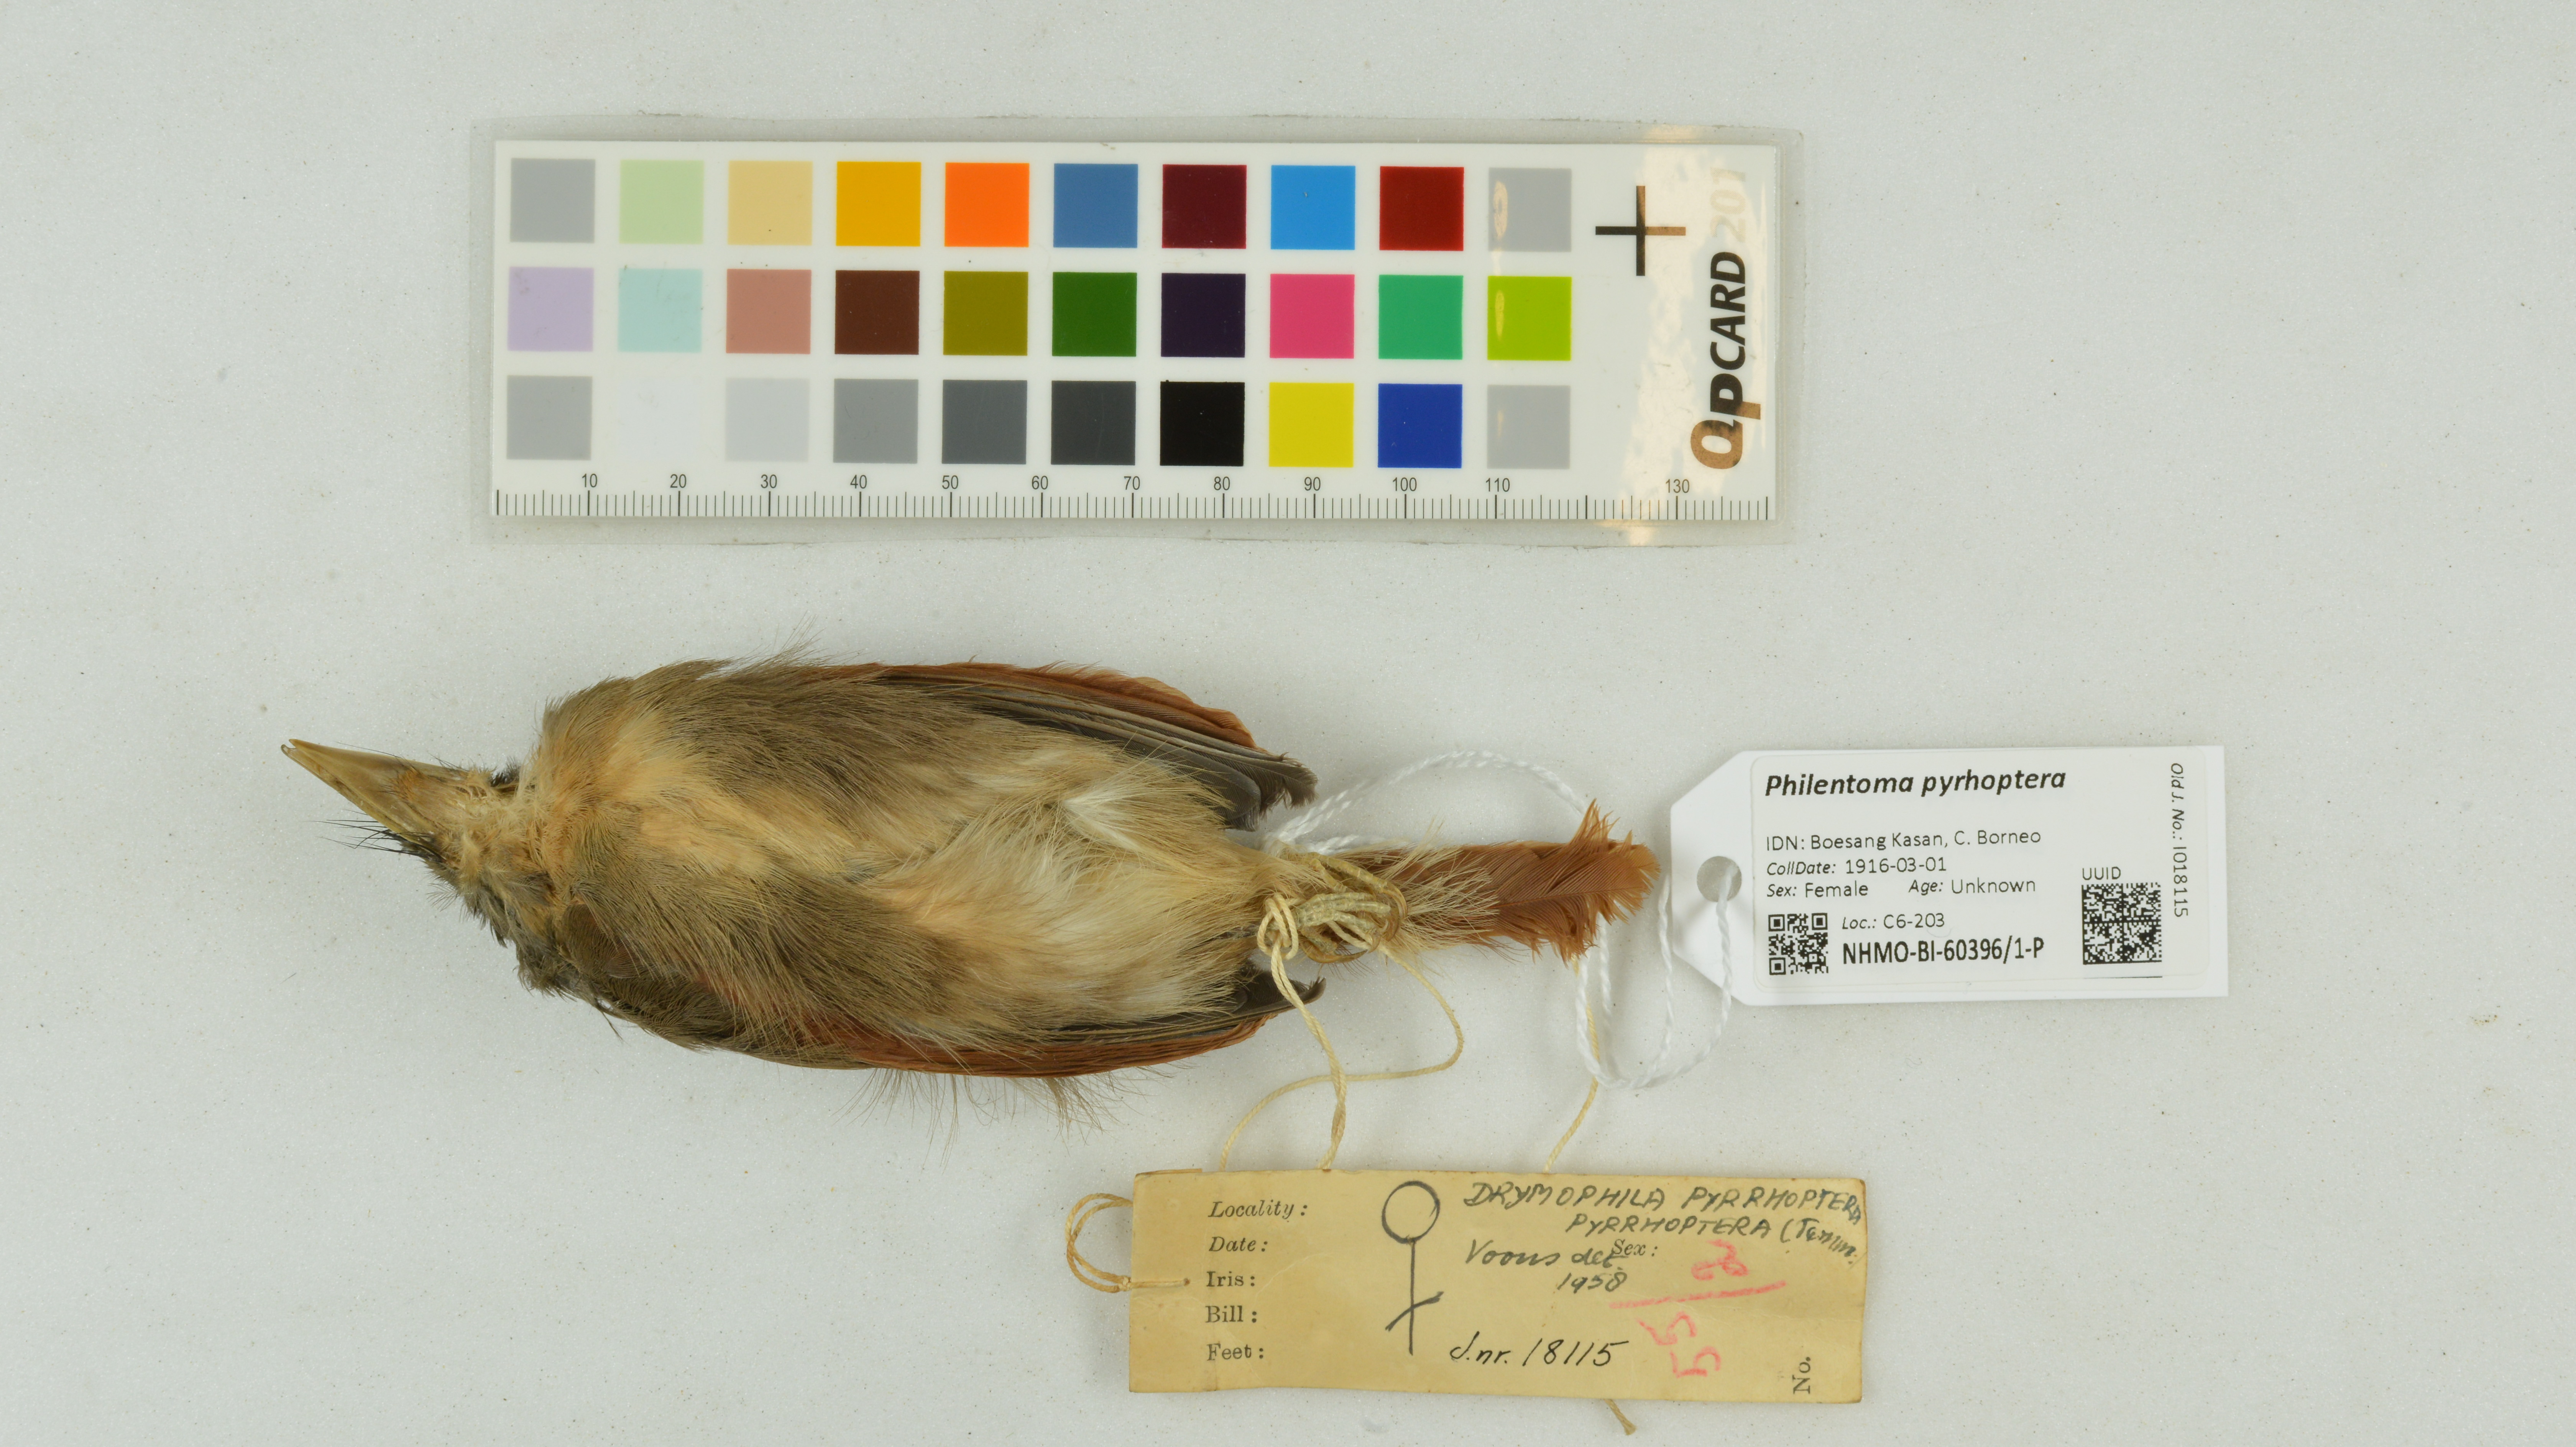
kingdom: Animalia
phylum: Chordata
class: Aves
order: Passeriformes
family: Tephrodornithidae
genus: Philentoma
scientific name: Philentoma pyrhoptera
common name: Rufous-winged philentoma
